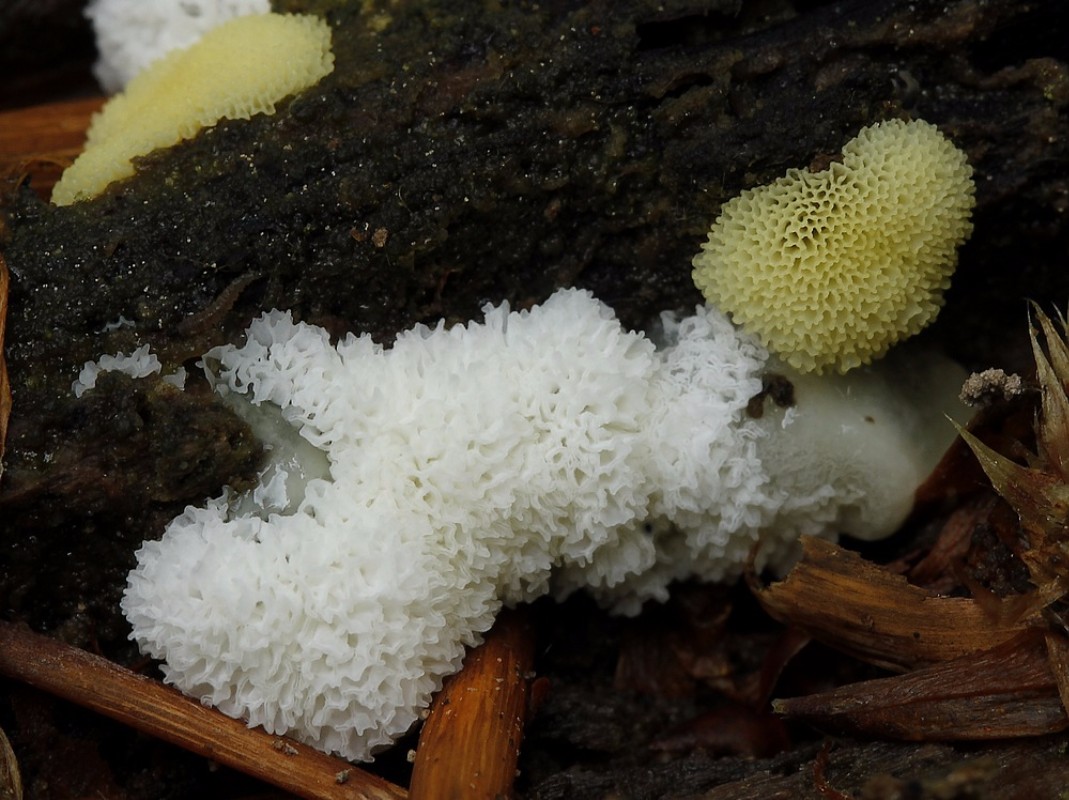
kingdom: Protozoa
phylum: Mycetozoa
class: Protosteliomycetes
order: Ceratiomyxales
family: Ceratiomyxaceae
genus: Ceratiomyxa
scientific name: Ceratiomyxa fruticulosa
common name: Honeycomb coral slime mold
